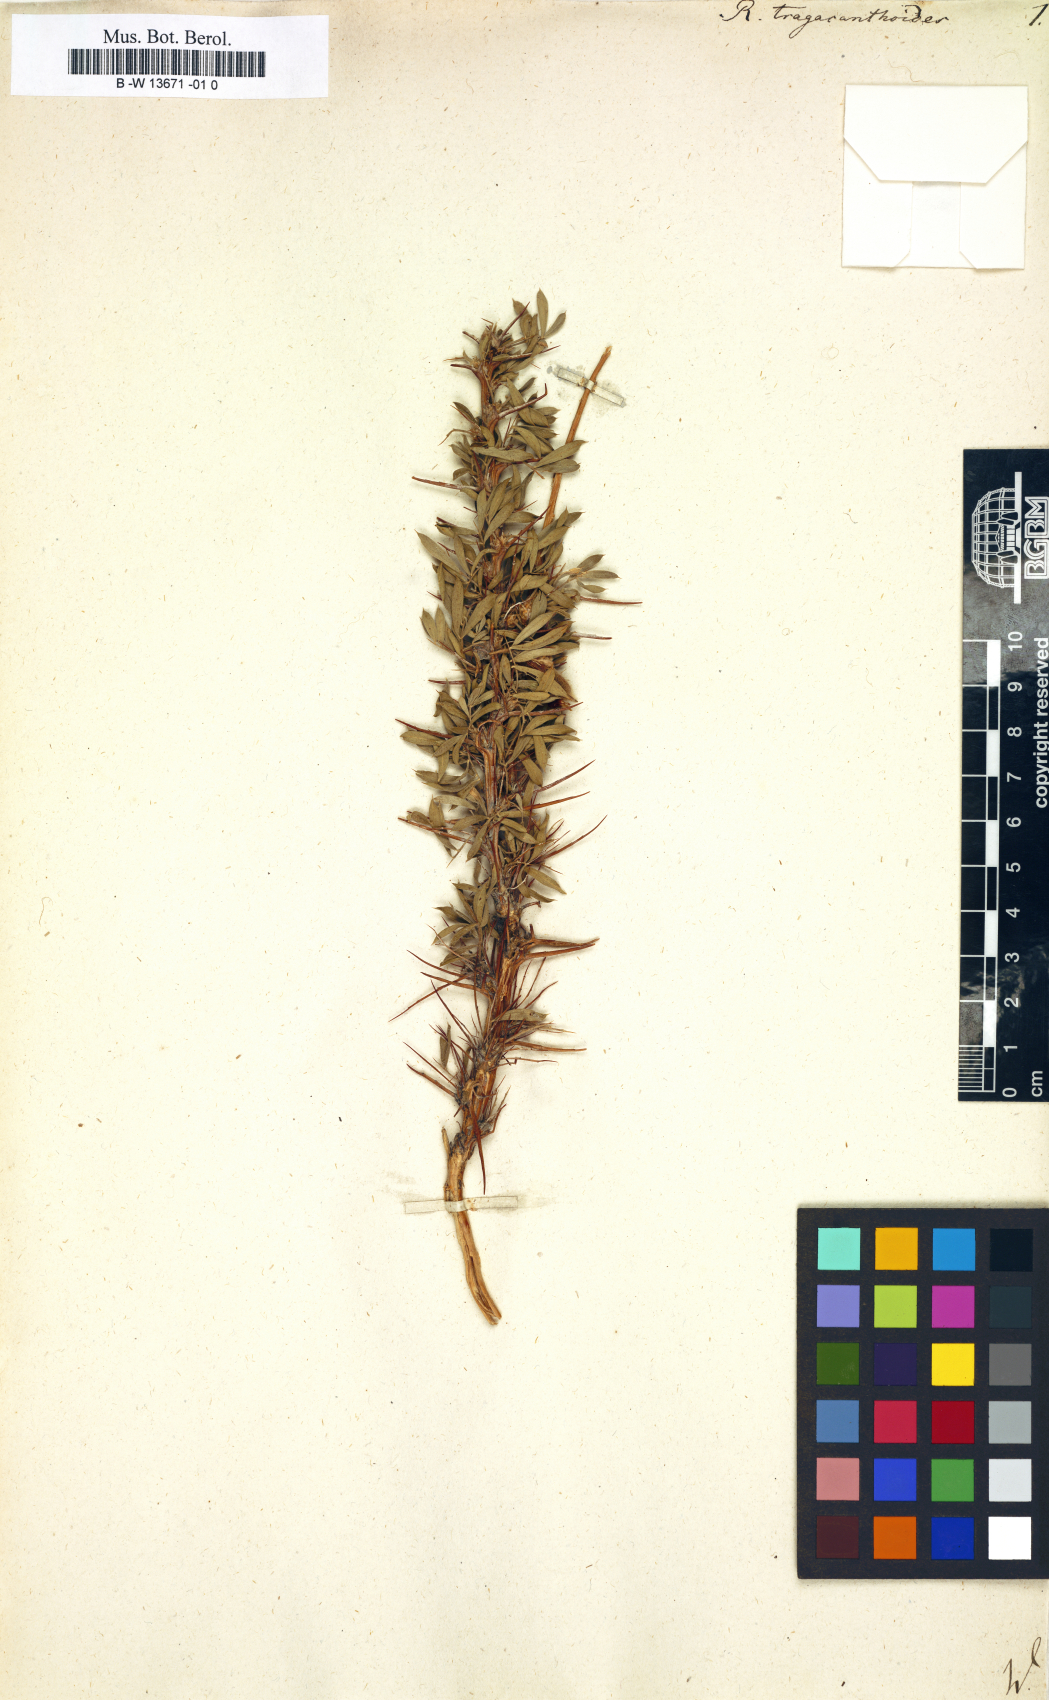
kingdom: Plantae
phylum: Tracheophyta
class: Magnoliopsida
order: Fabales
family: Fabaceae
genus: Caragana
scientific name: Caragana tragacanthoides
